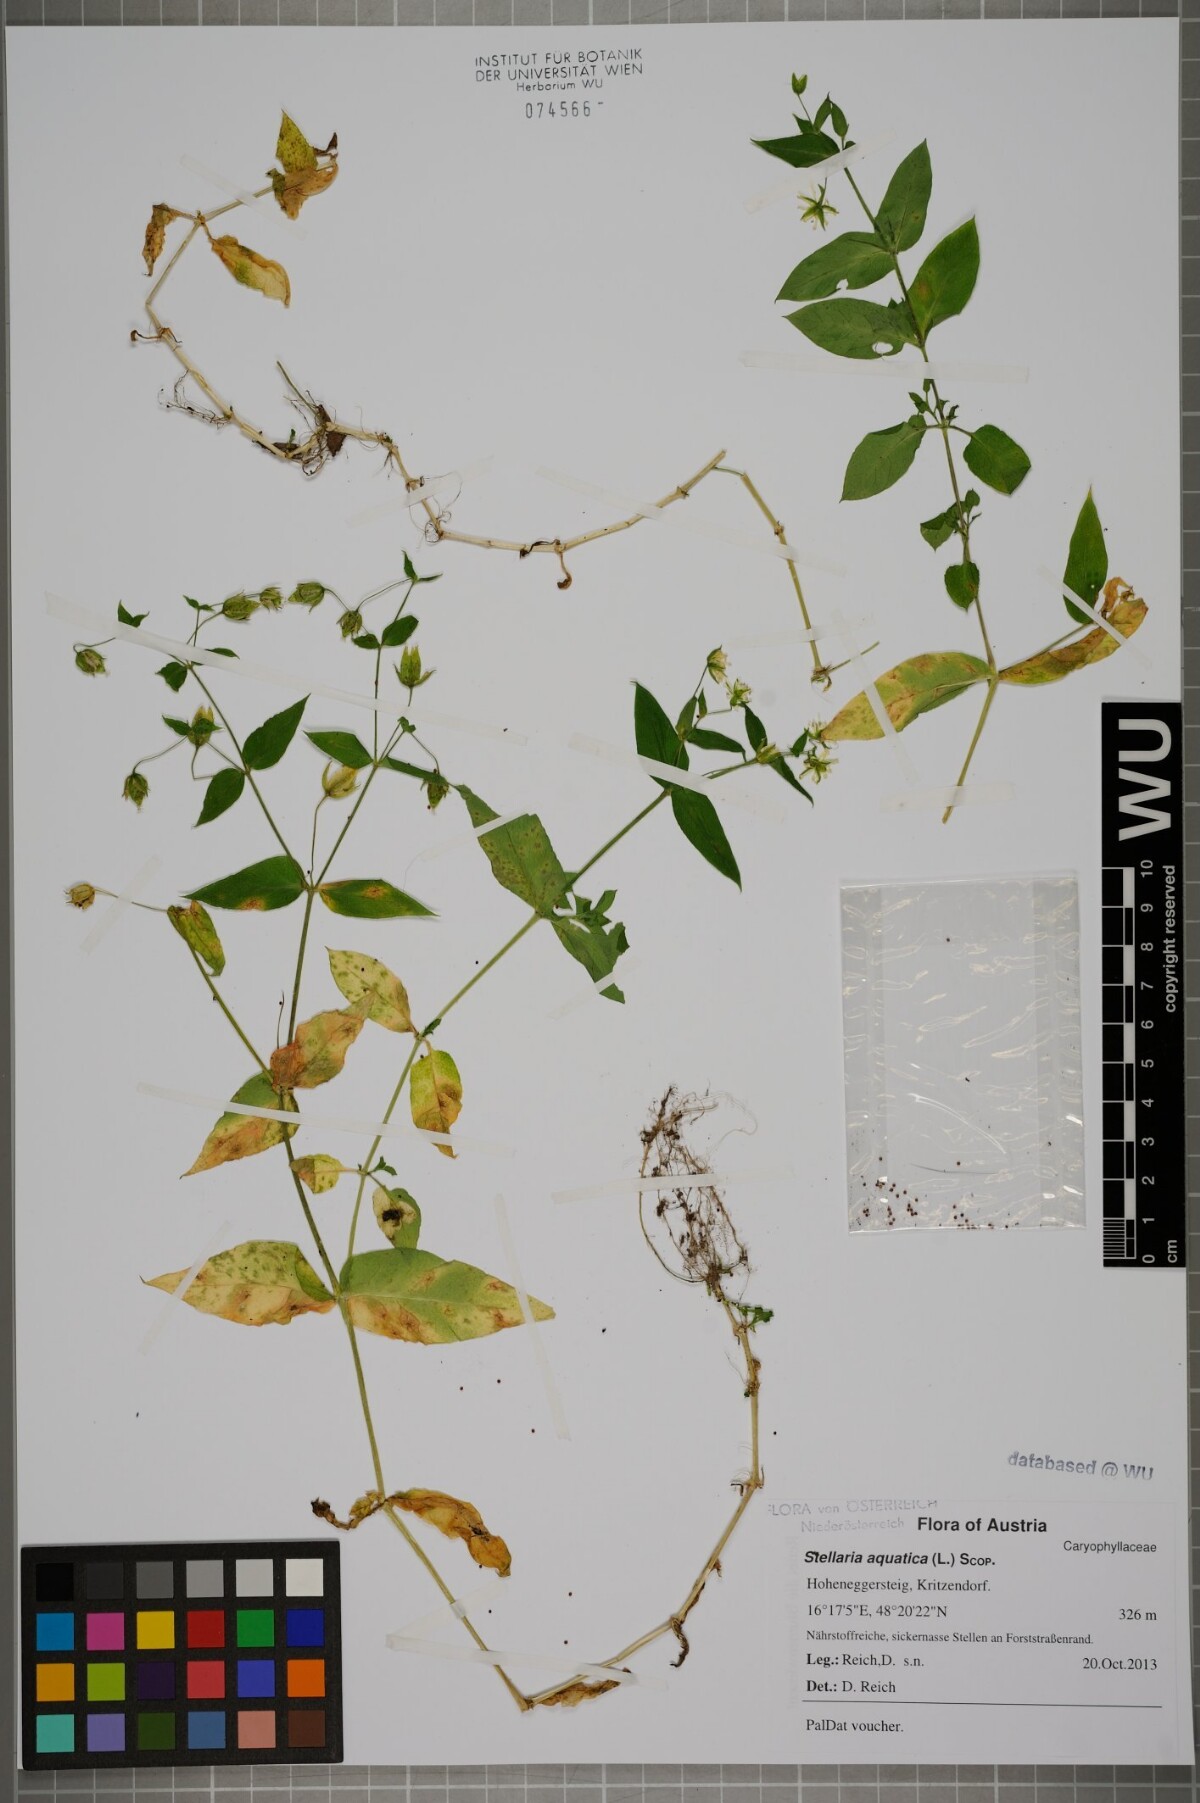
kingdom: Plantae
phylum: Tracheophyta
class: Magnoliopsida
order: Caryophyllales
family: Caryophyllaceae
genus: Stellaria
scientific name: Stellaria aquatica
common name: Water chickweed
